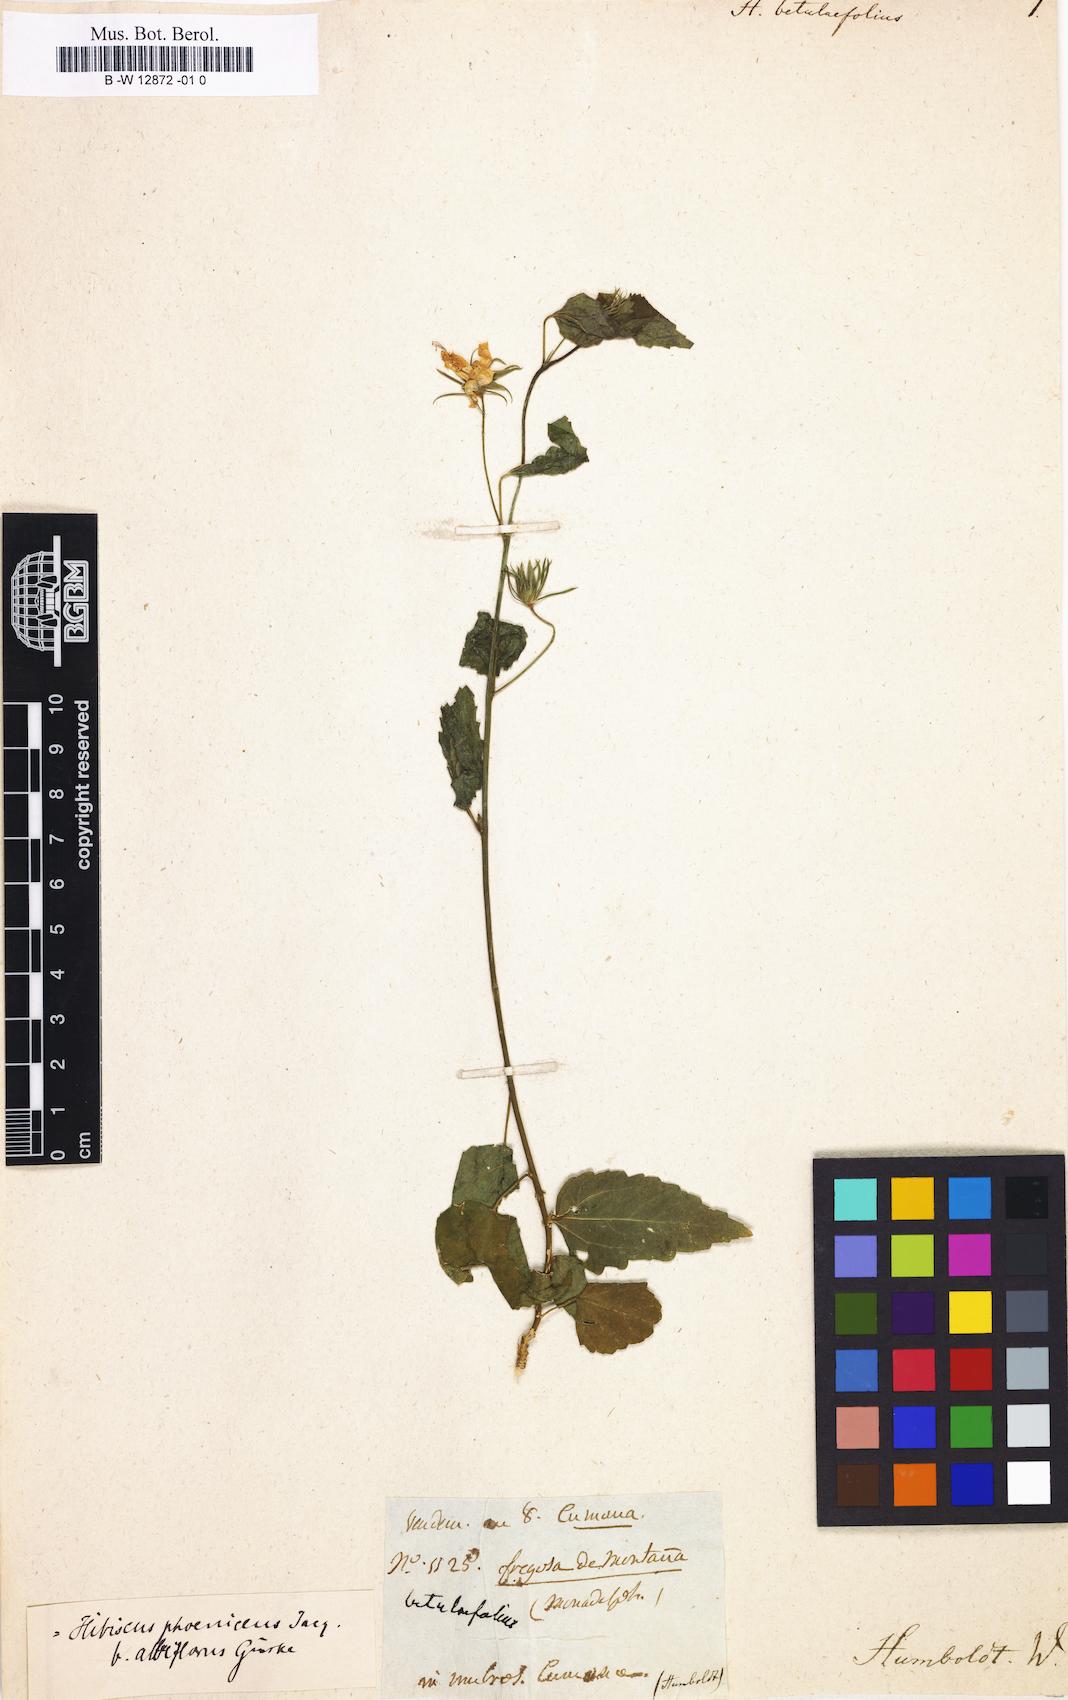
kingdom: Plantae
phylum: Tracheophyta
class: Magnoliopsida
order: Malvales
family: Malvaceae
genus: Hibiscus
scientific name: Hibiscus phoeniceus
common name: Brazilian rosemallow
